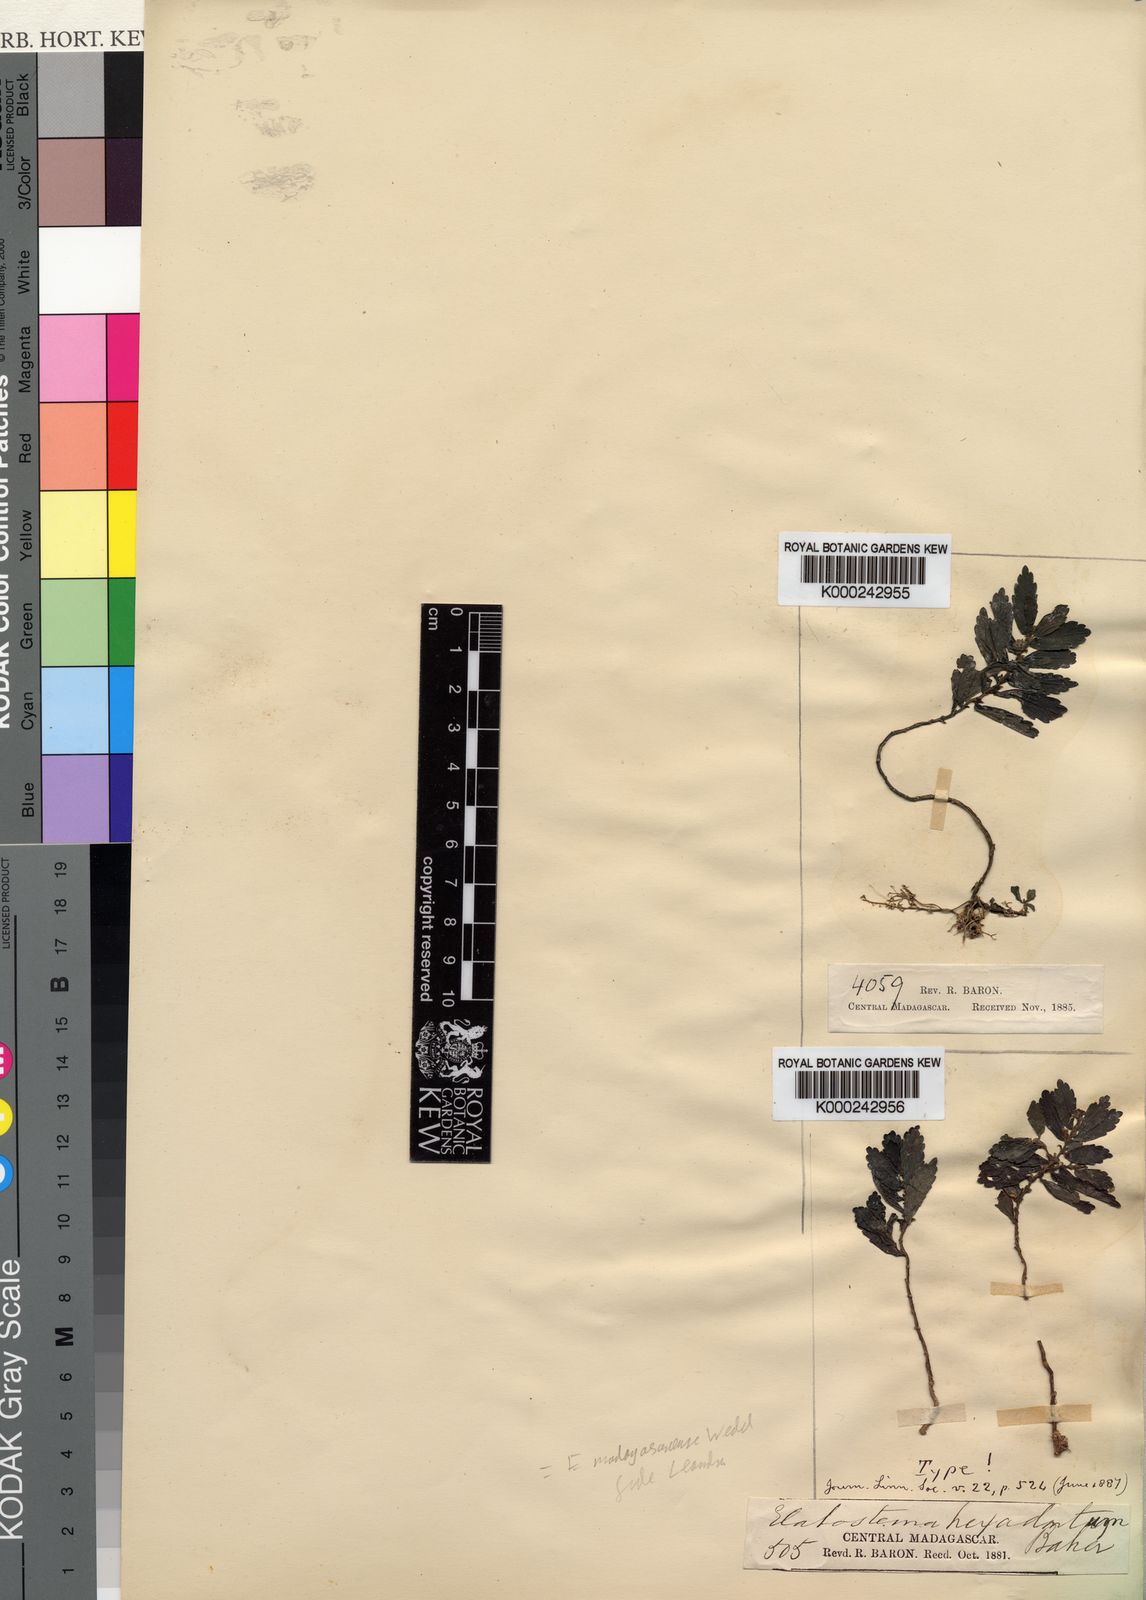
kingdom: Plantae
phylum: Tracheophyta
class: Magnoliopsida
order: Rosales
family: Urticaceae
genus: Elatostema
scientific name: Elatostema madagascariense
